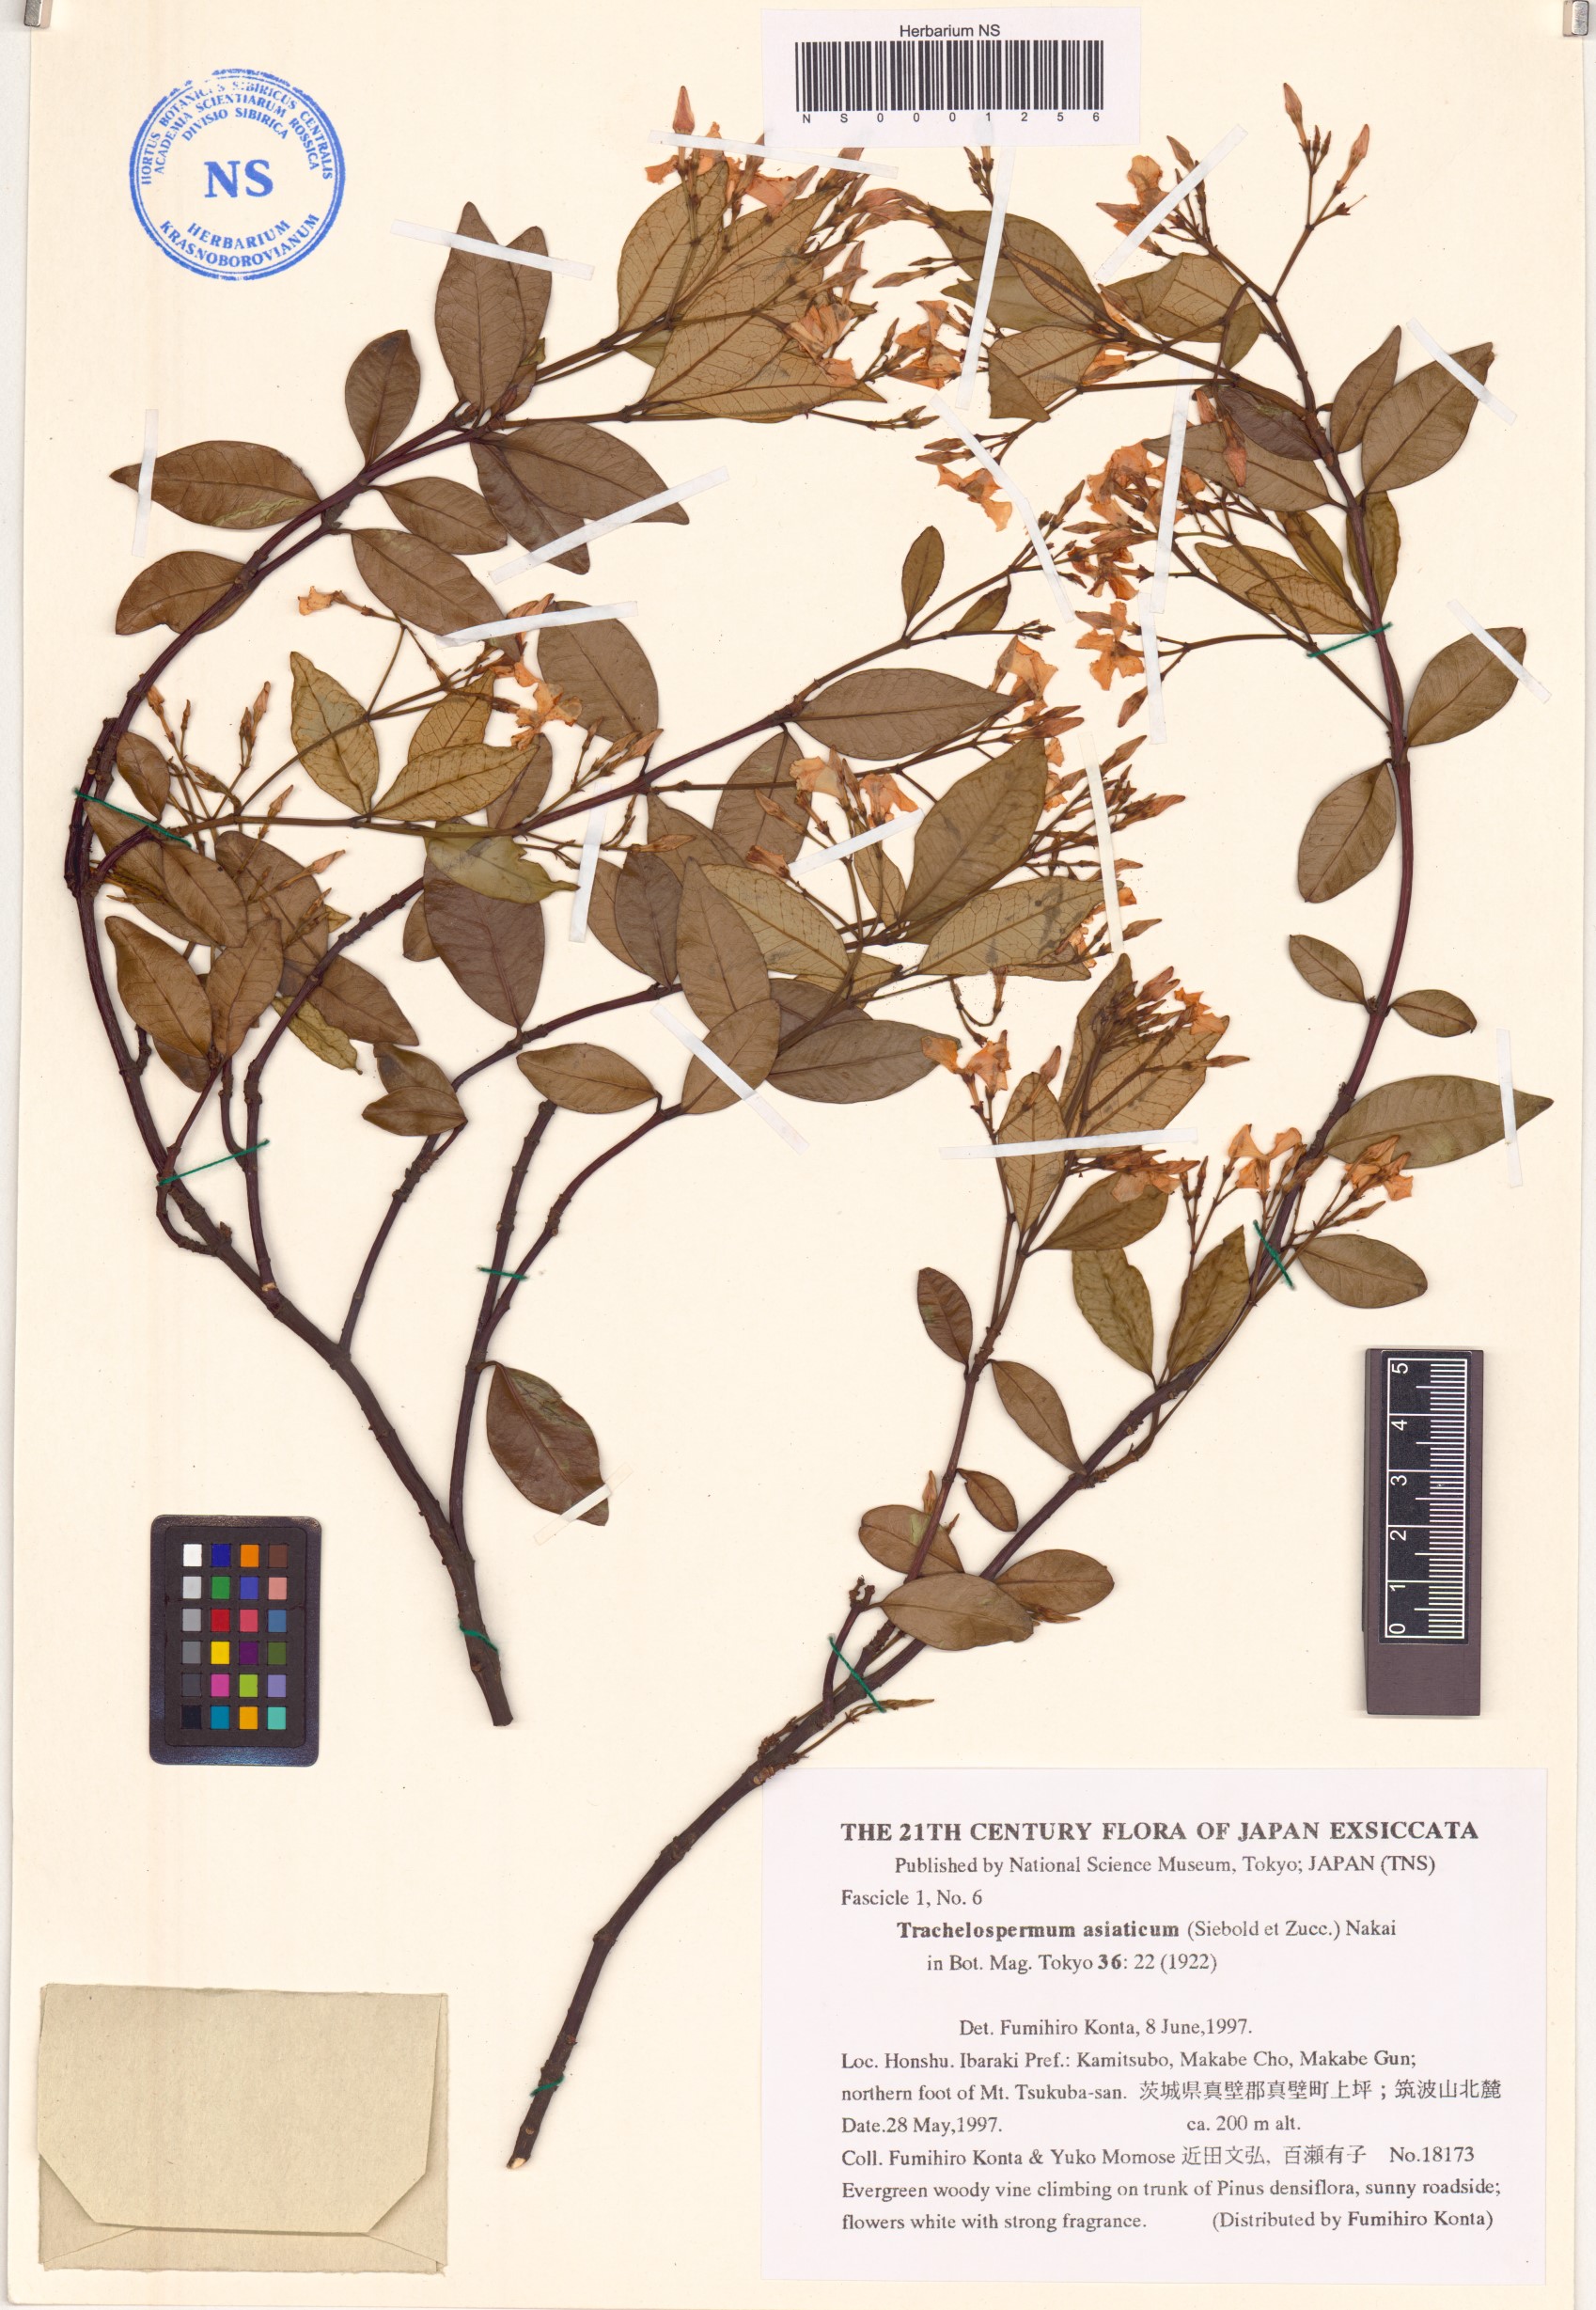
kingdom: Plantae
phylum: Tracheophyta
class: Magnoliopsida
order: Gentianales
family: Apocynaceae
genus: Trachelospermum
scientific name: Trachelospermum asiaticum
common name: Asiatic jasmine
